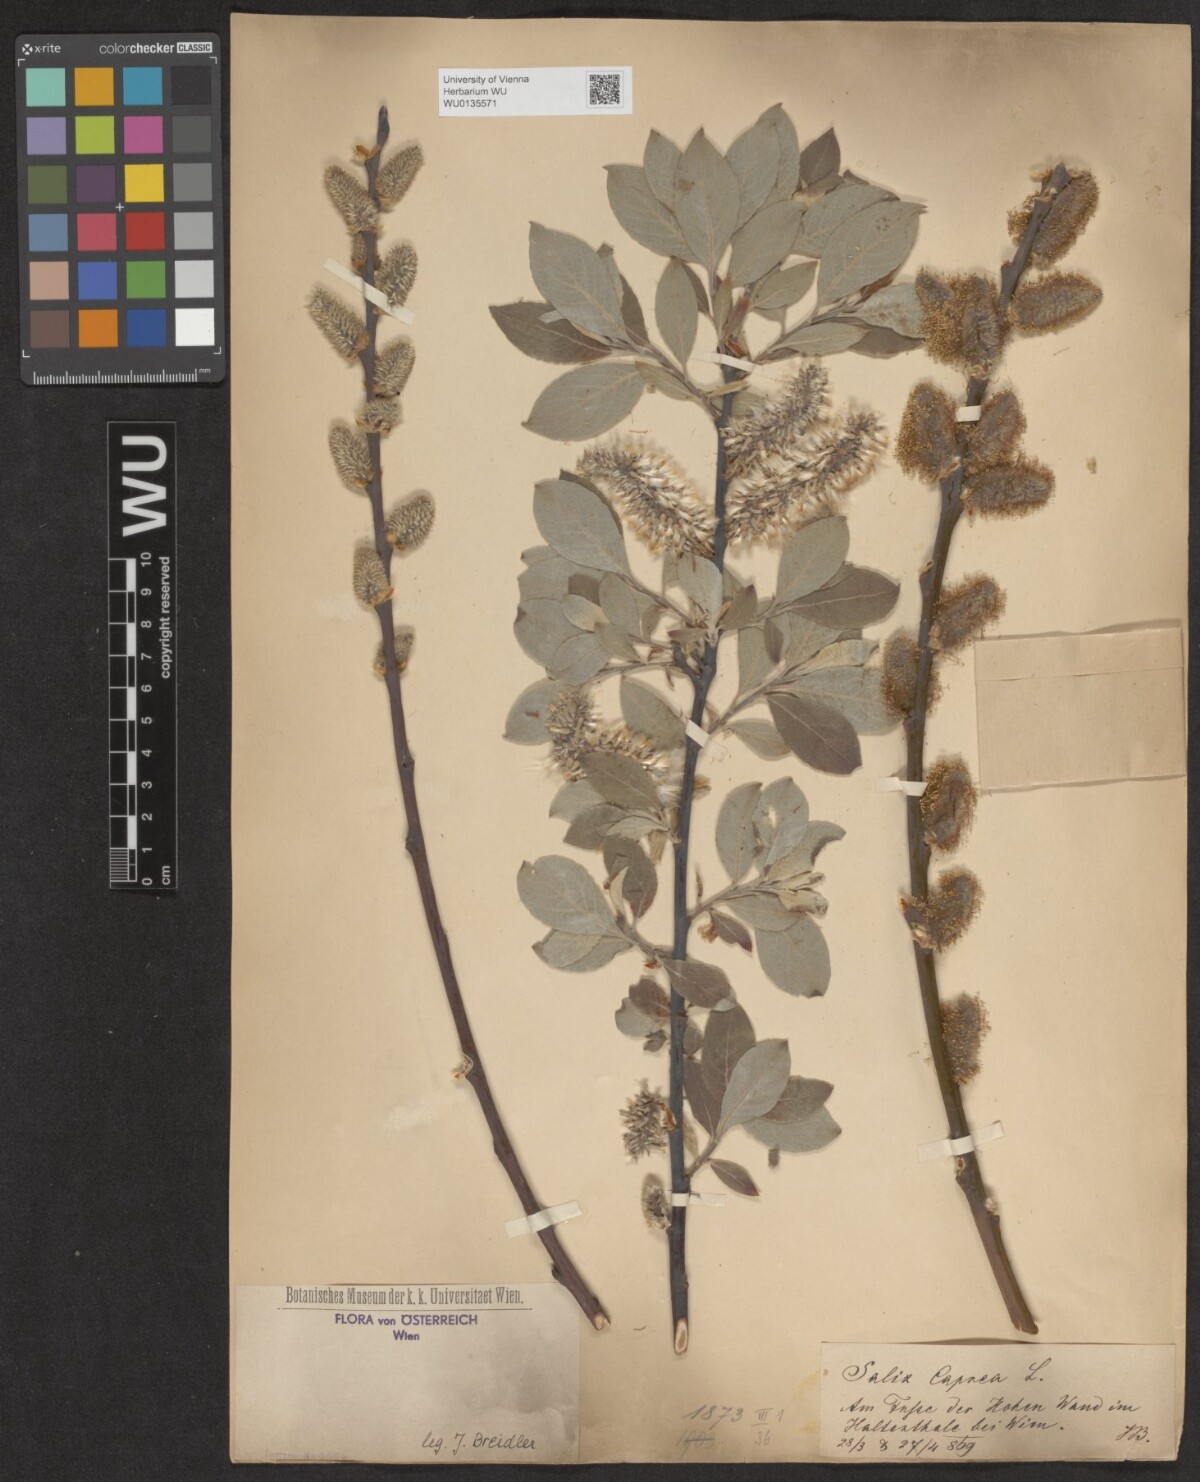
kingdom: Plantae
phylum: Tracheophyta
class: Magnoliopsida
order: Malpighiales
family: Salicaceae
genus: Salix
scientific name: Salix caprea
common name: Goat willow
